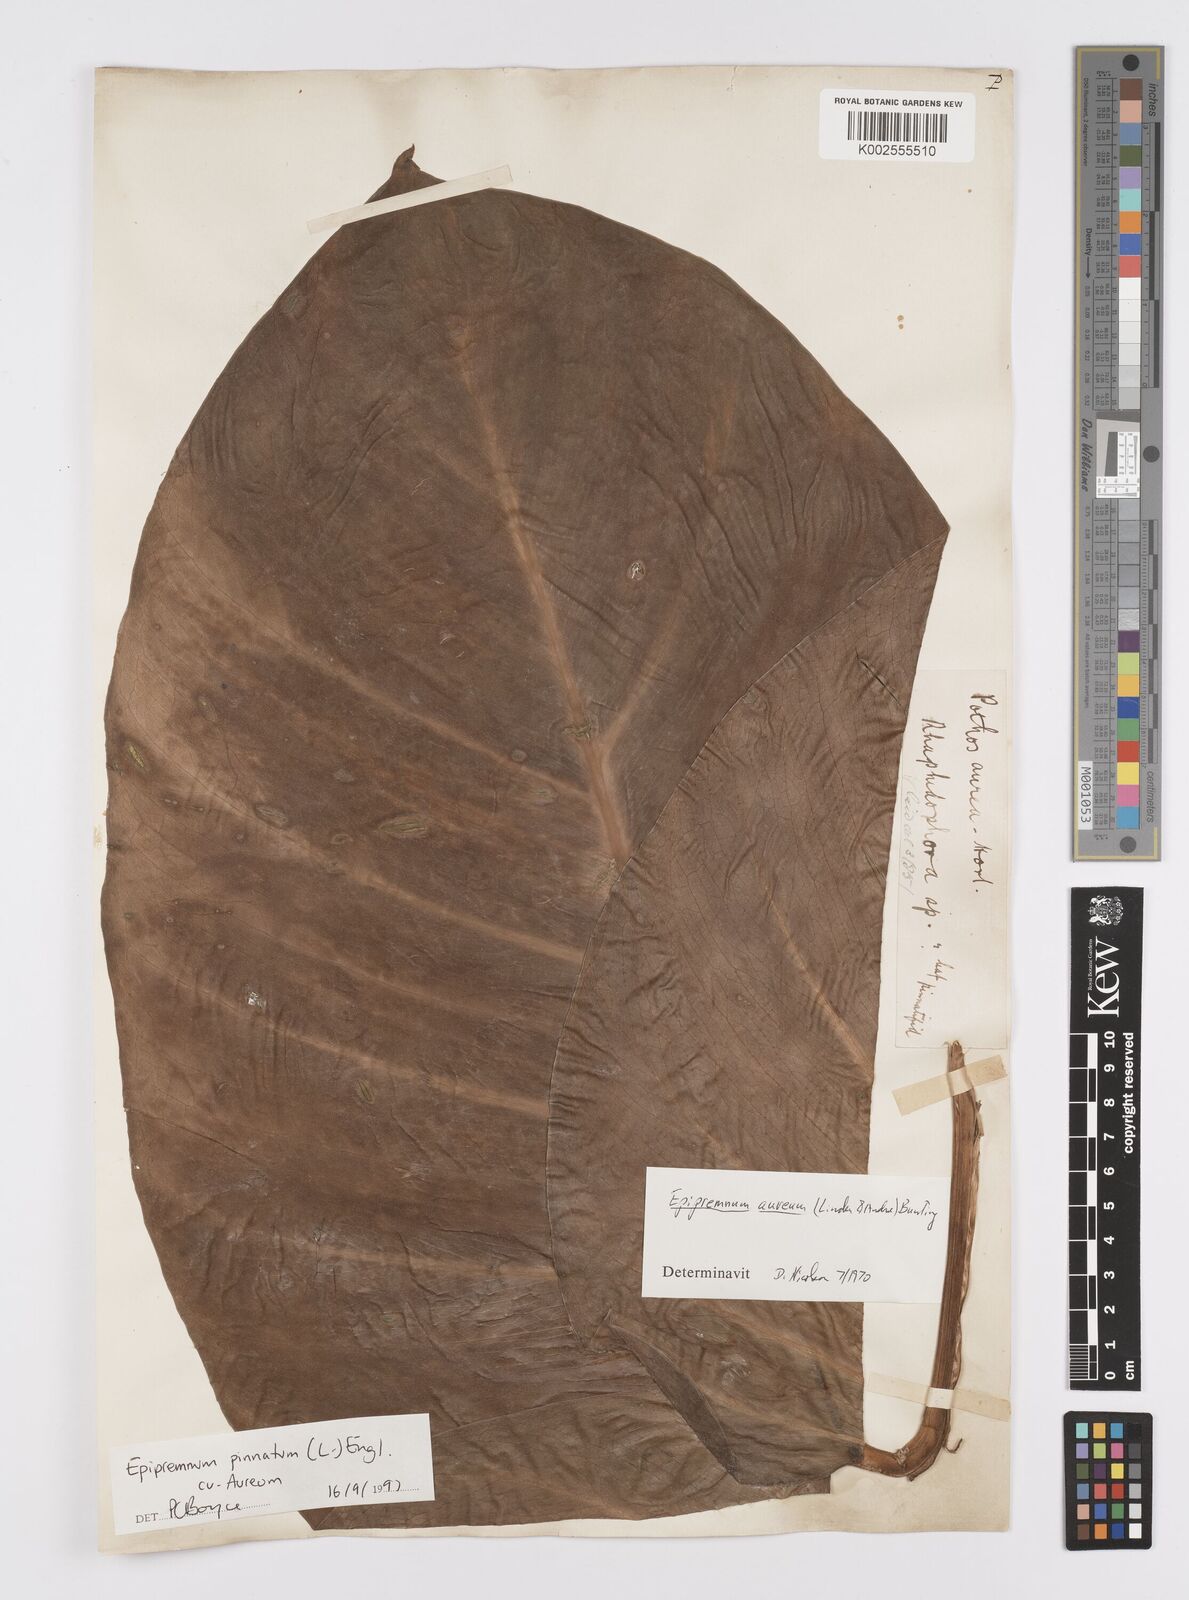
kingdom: Plantae
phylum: Tracheophyta
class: Liliopsida
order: Alismatales
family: Araceae
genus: Epipremnum
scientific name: Epipremnum aureum
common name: Golden hunter's-robe
